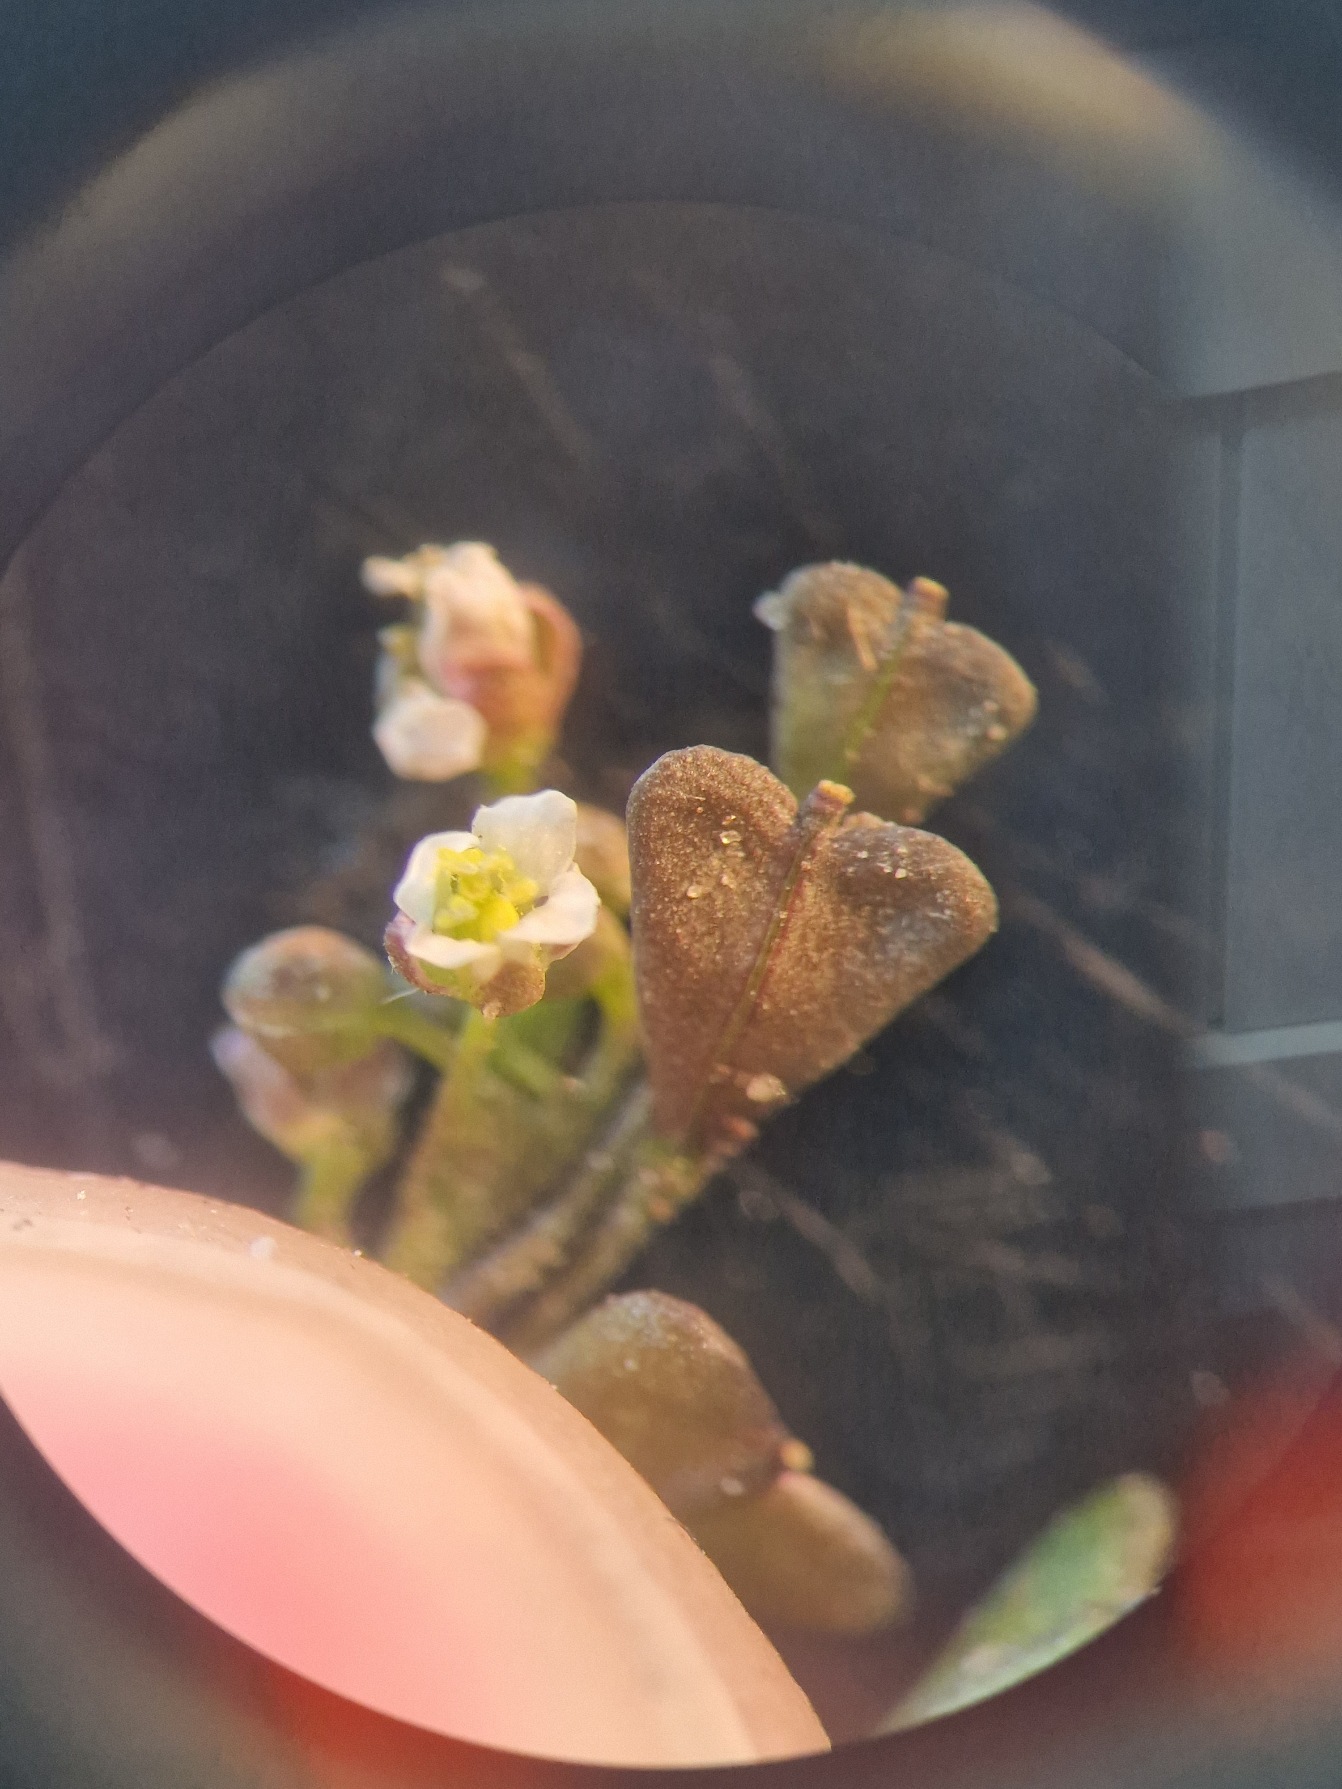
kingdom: Plantae
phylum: Tracheophyta
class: Magnoliopsida
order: Brassicales
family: Brassicaceae
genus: Capsella
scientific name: Capsella bursa-pastoris
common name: Hyrdetaske
